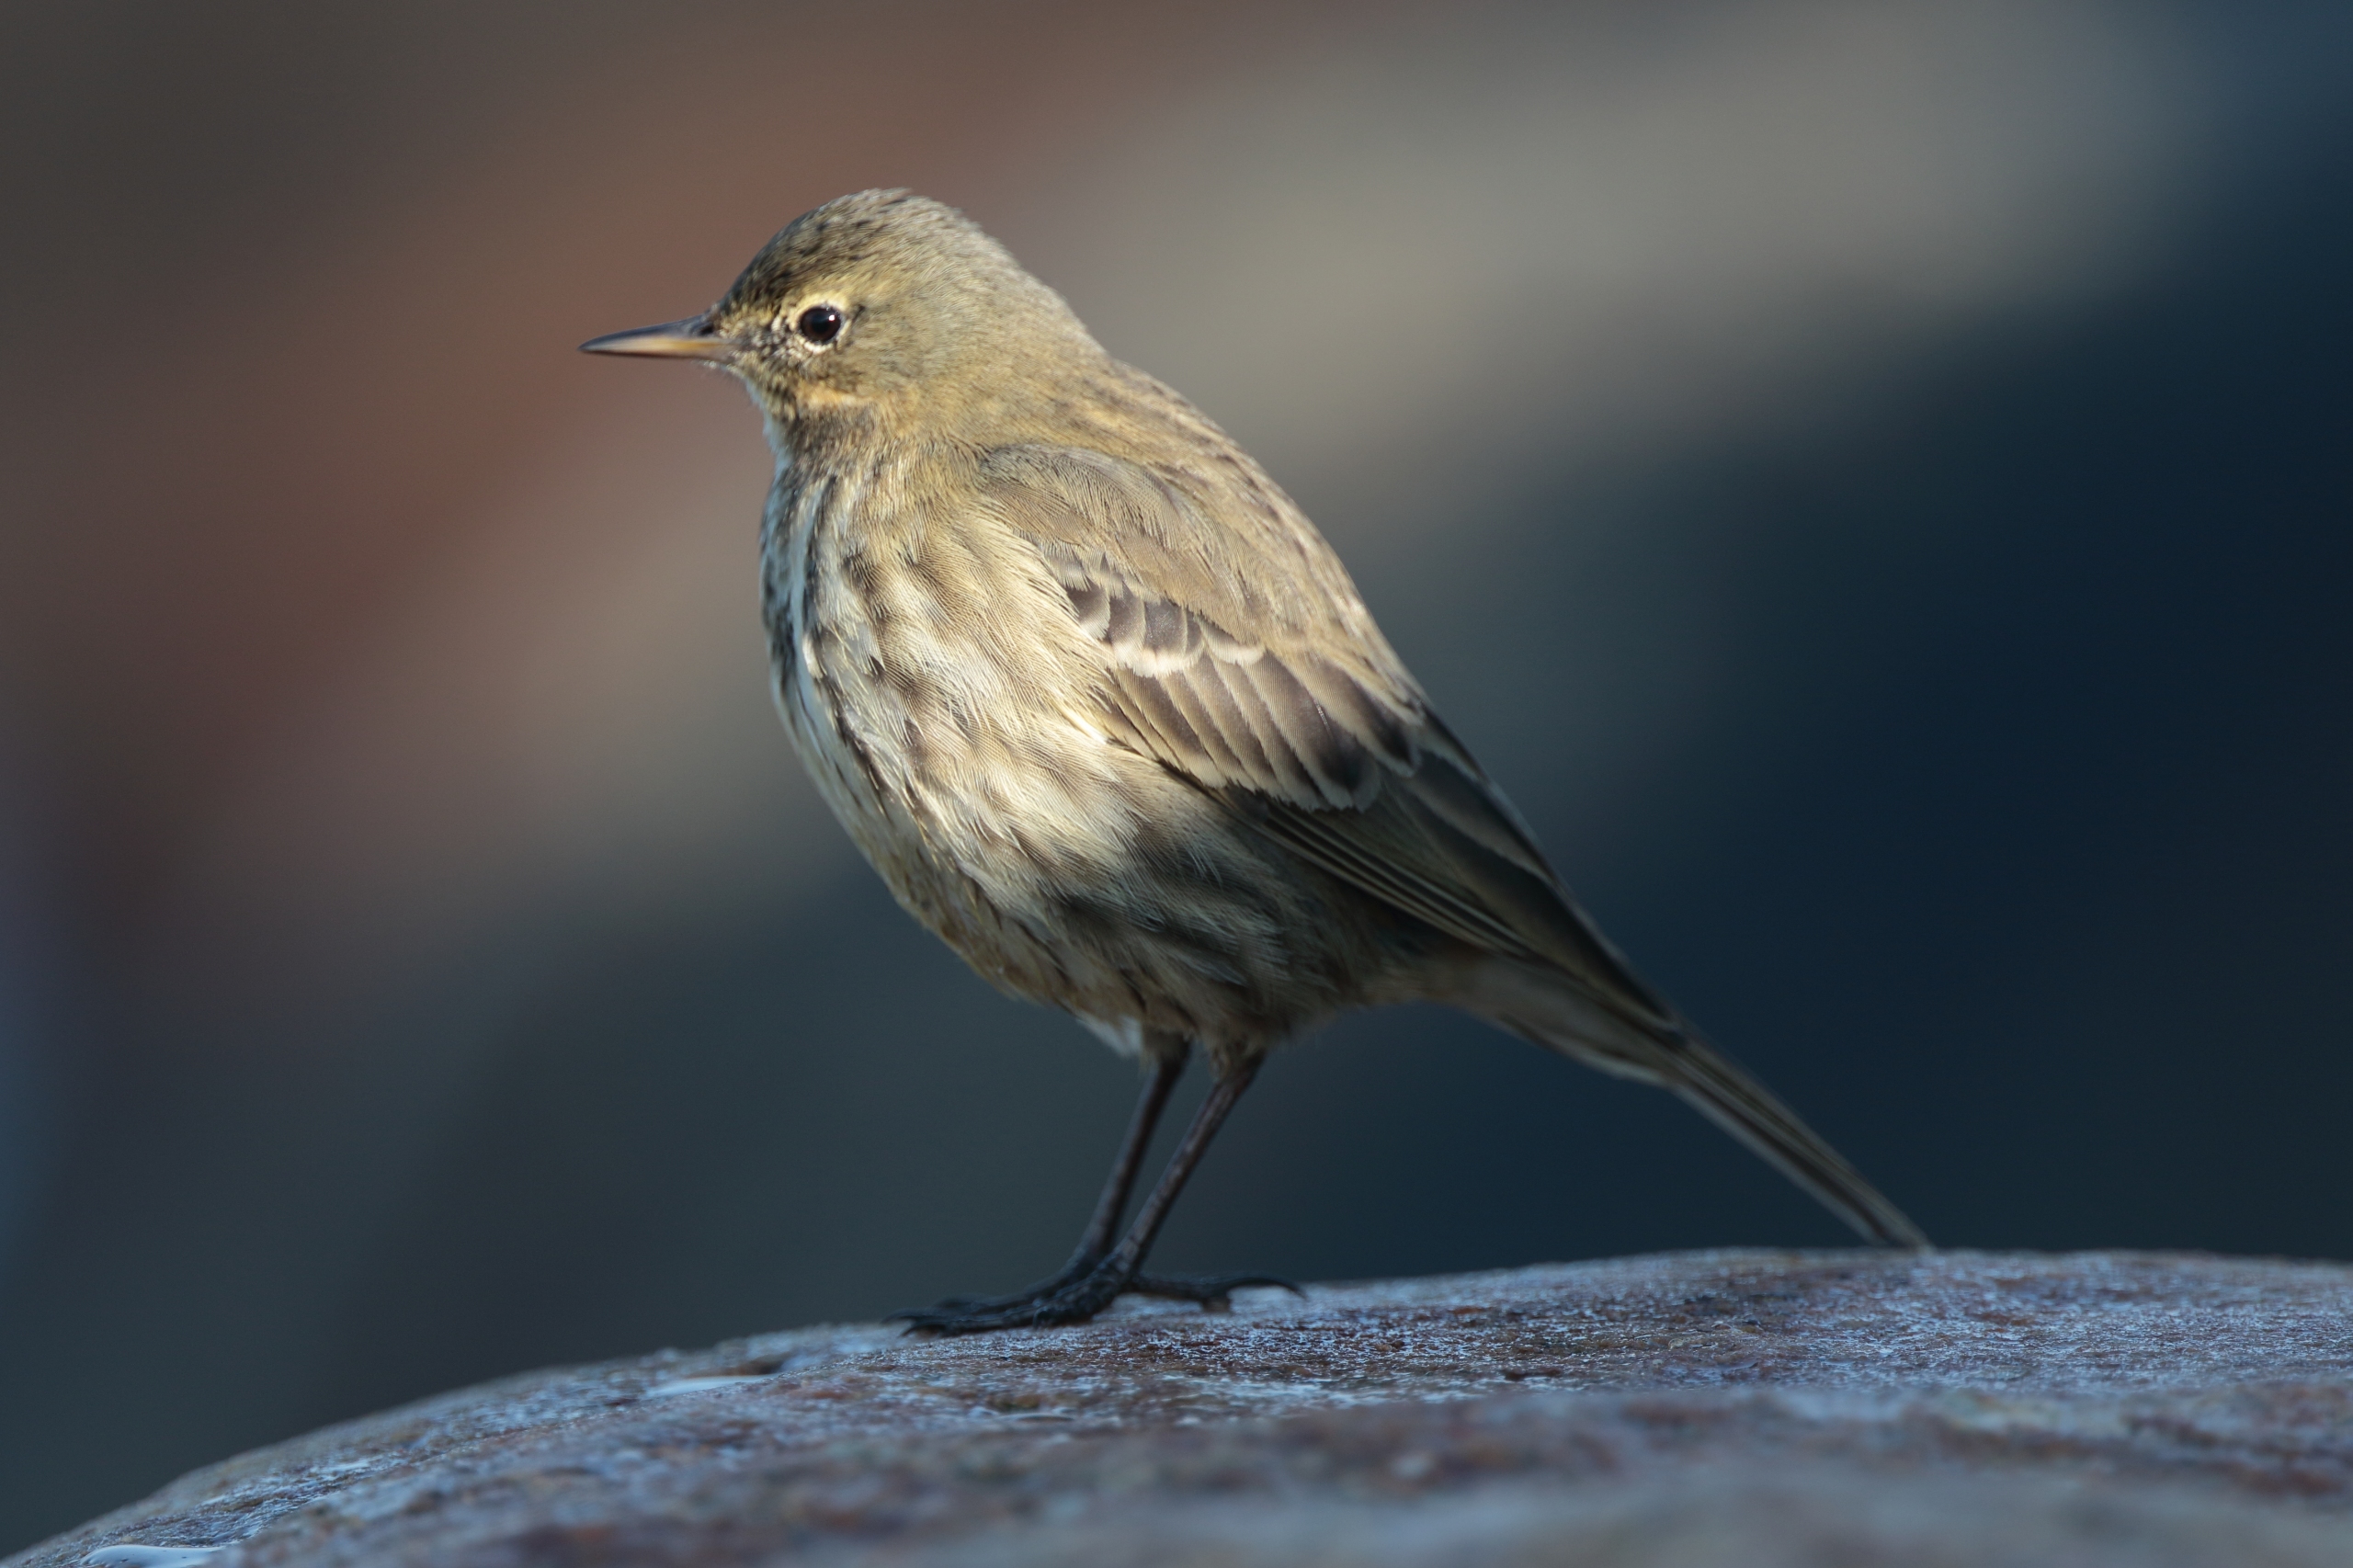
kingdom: Animalia
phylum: Chordata
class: Aves
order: Passeriformes
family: Motacillidae
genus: Anthus
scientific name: Anthus petrosus
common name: Skærpiber
